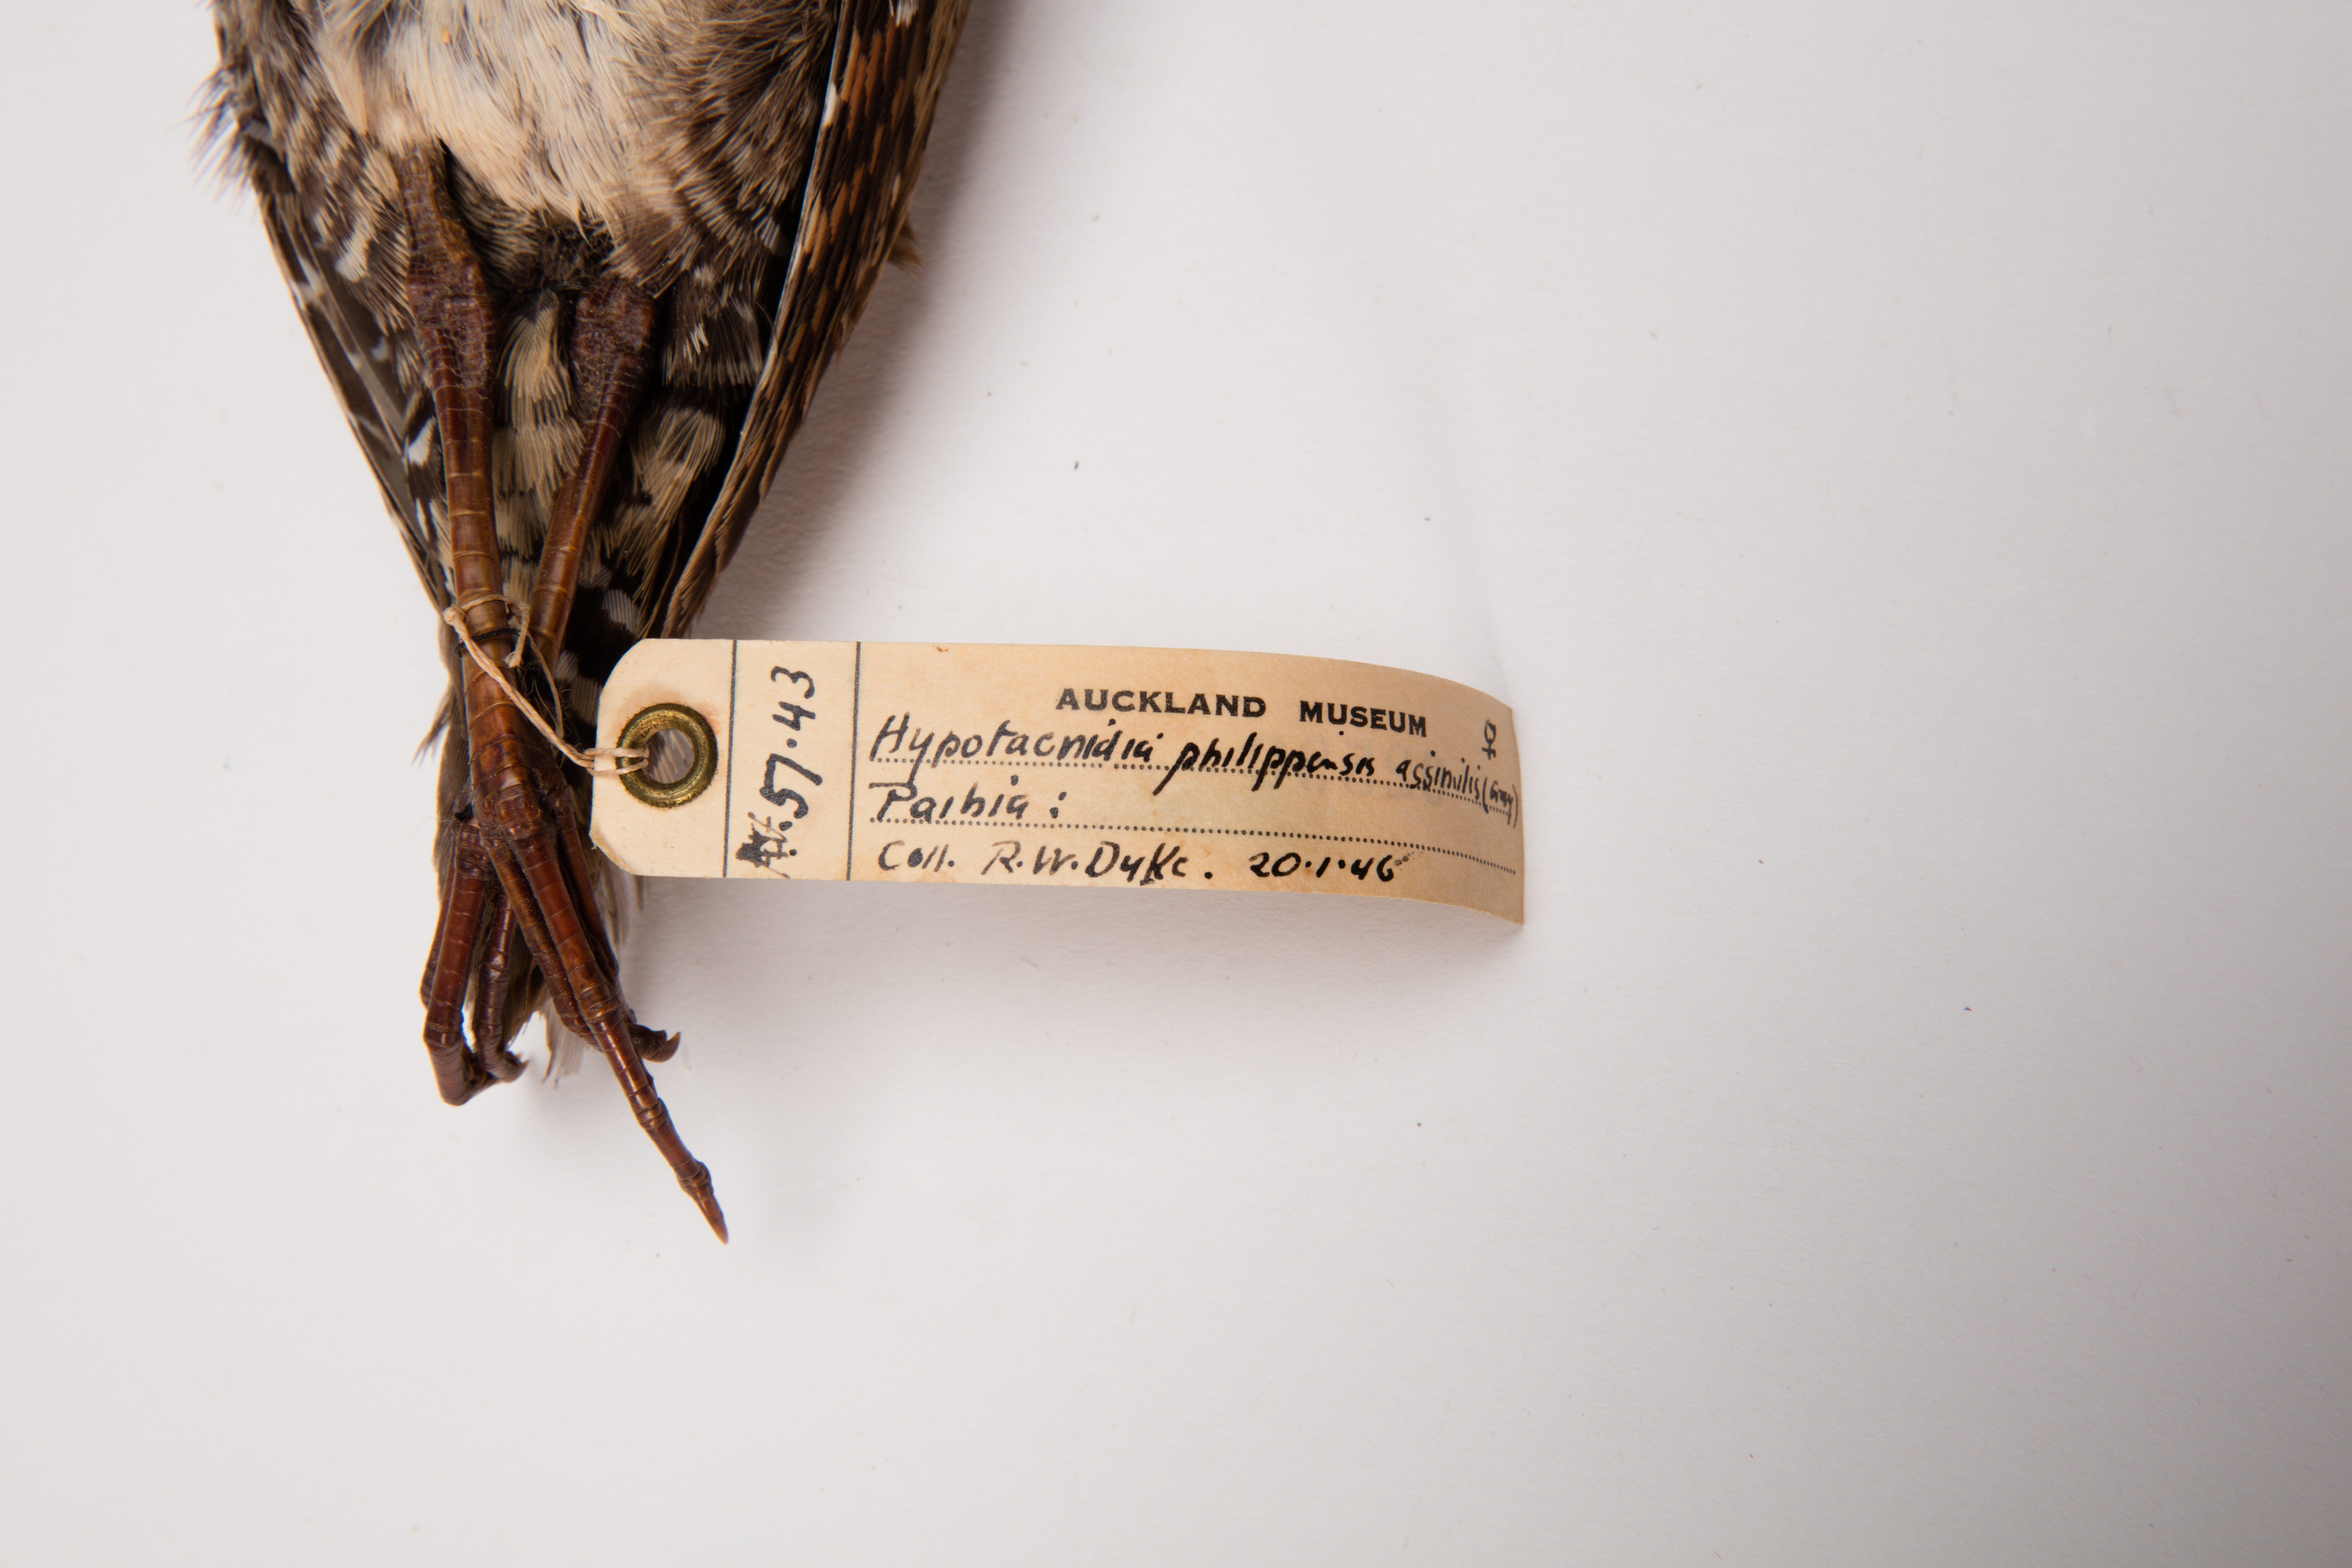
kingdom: Animalia
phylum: Chordata
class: Aves
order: Gruiformes
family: Rallidae
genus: Gallirallus
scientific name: Gallirallus philippensis
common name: Buff-banded rail
